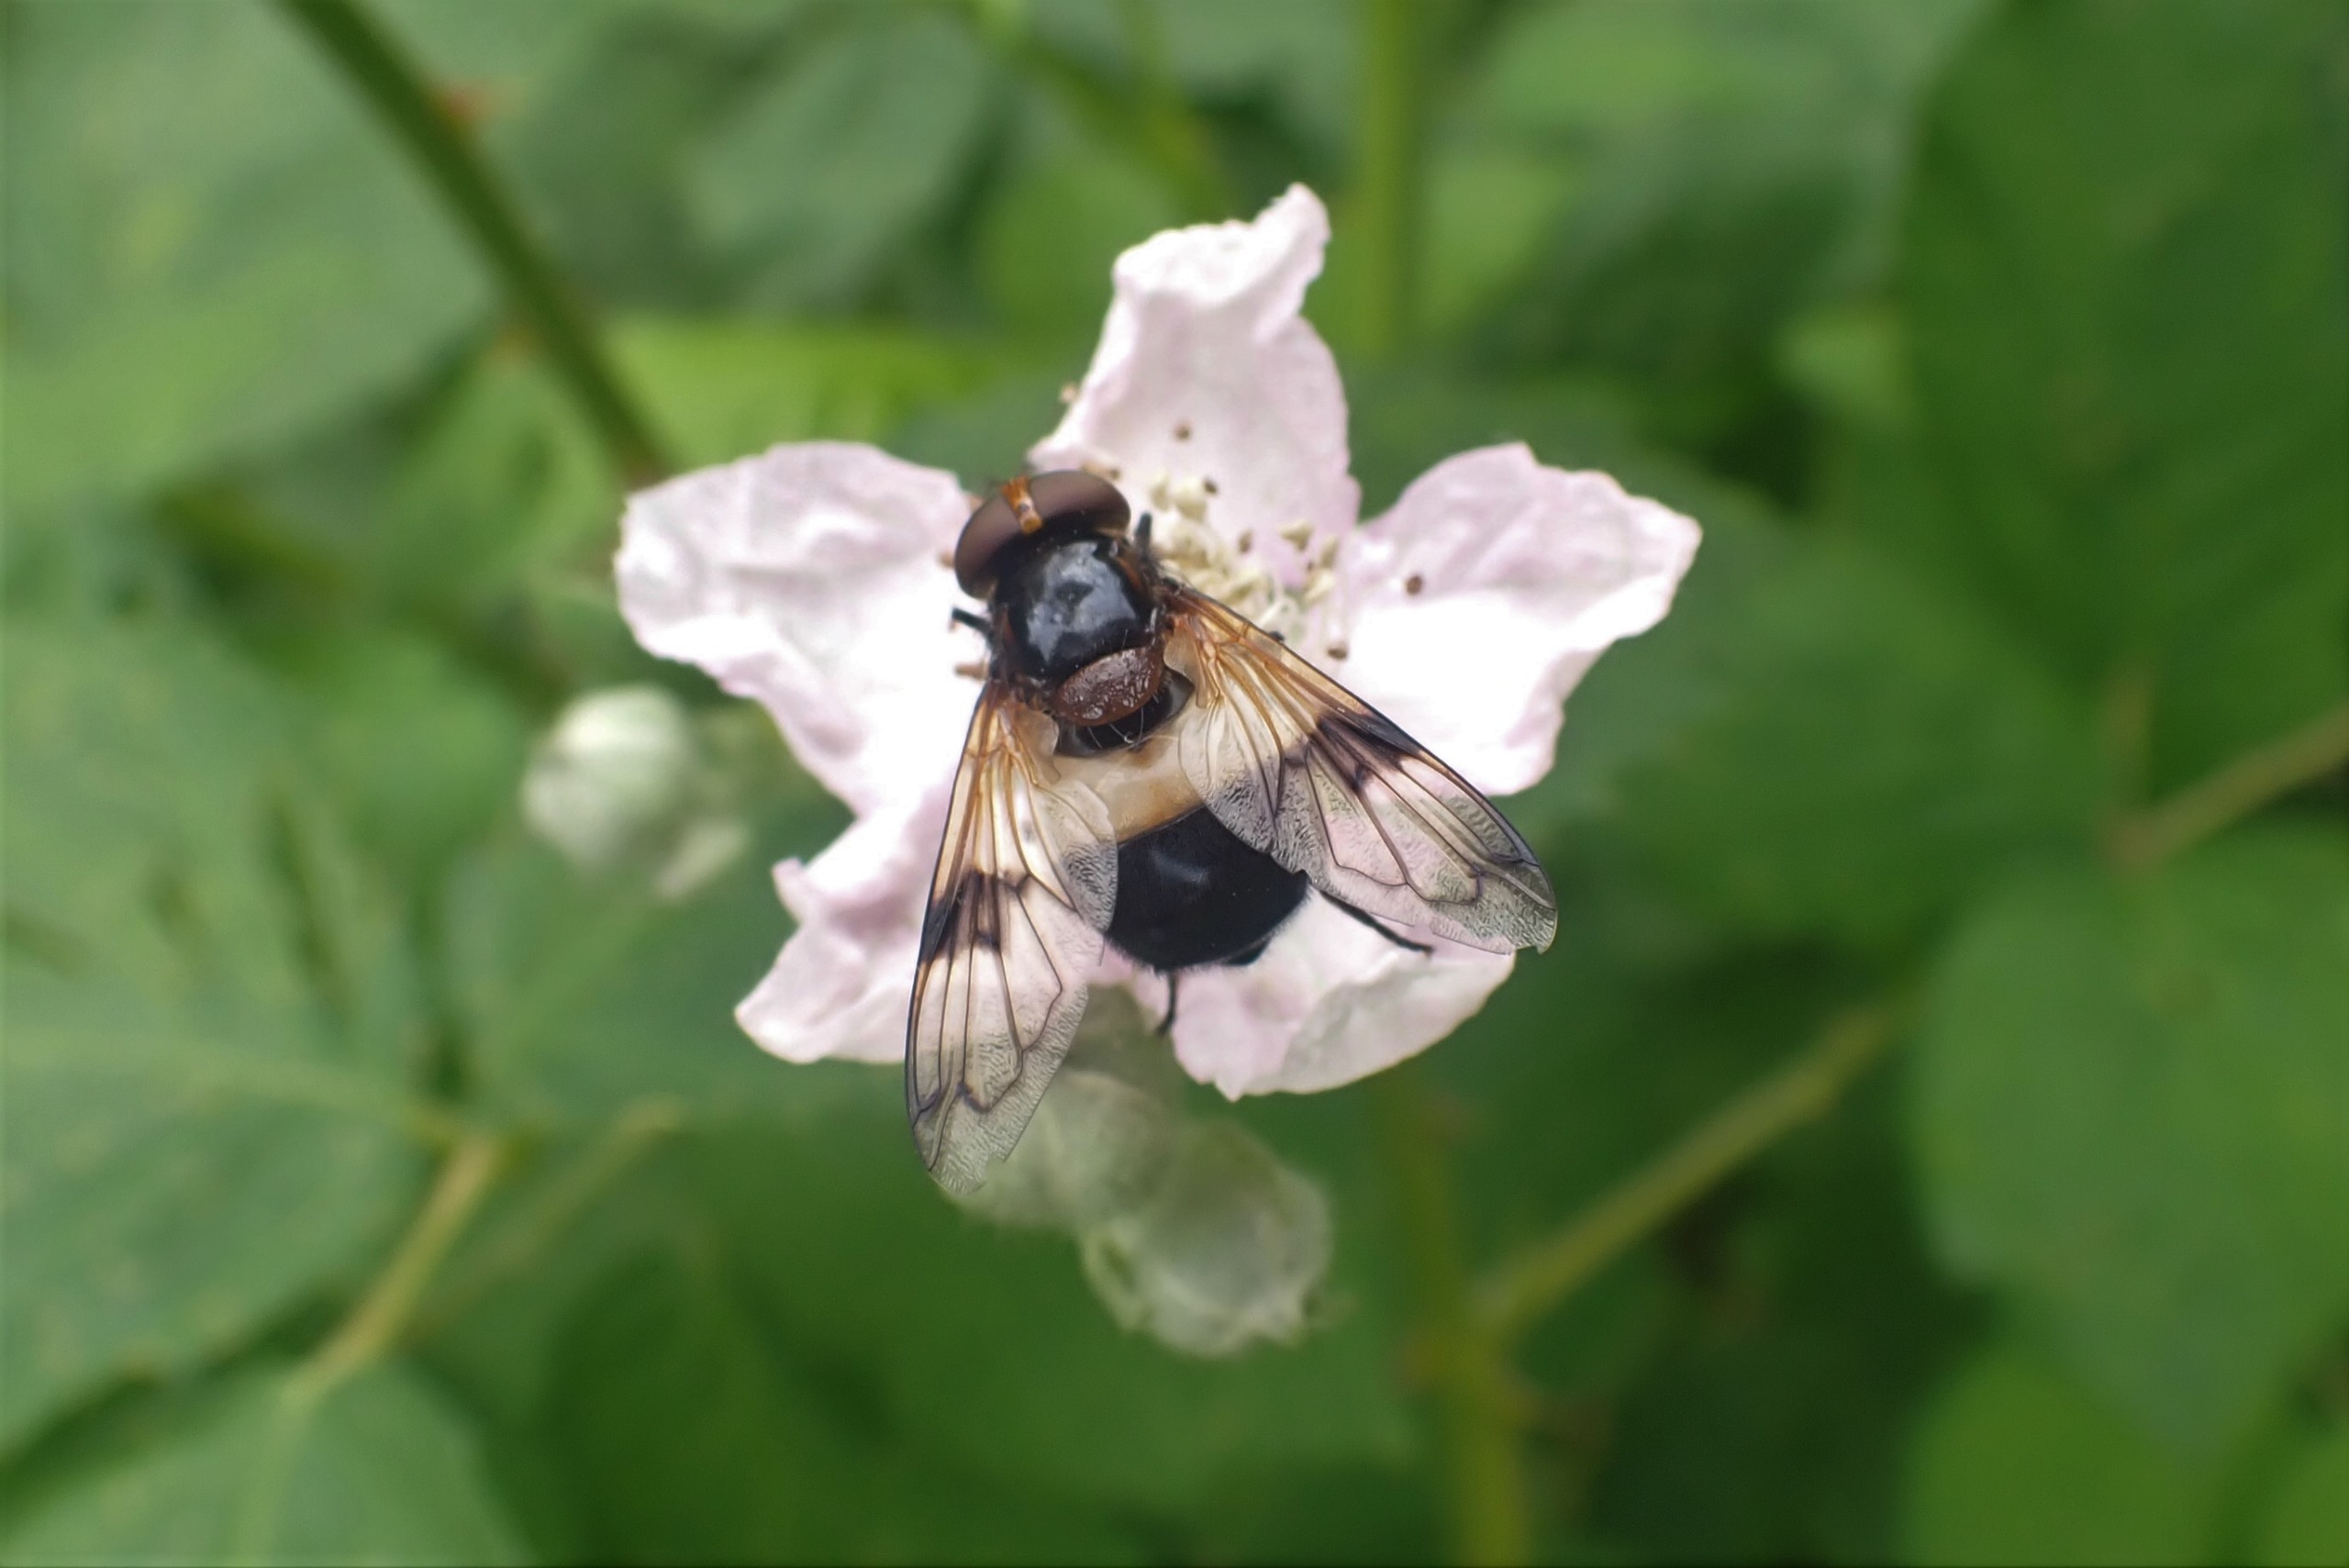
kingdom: Animalia
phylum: Arthropoda
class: Insecta
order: Diptera
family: Syrphidae
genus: Volucella
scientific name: Volucella pellucens
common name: Hvidbåndet humlesvirreflue
